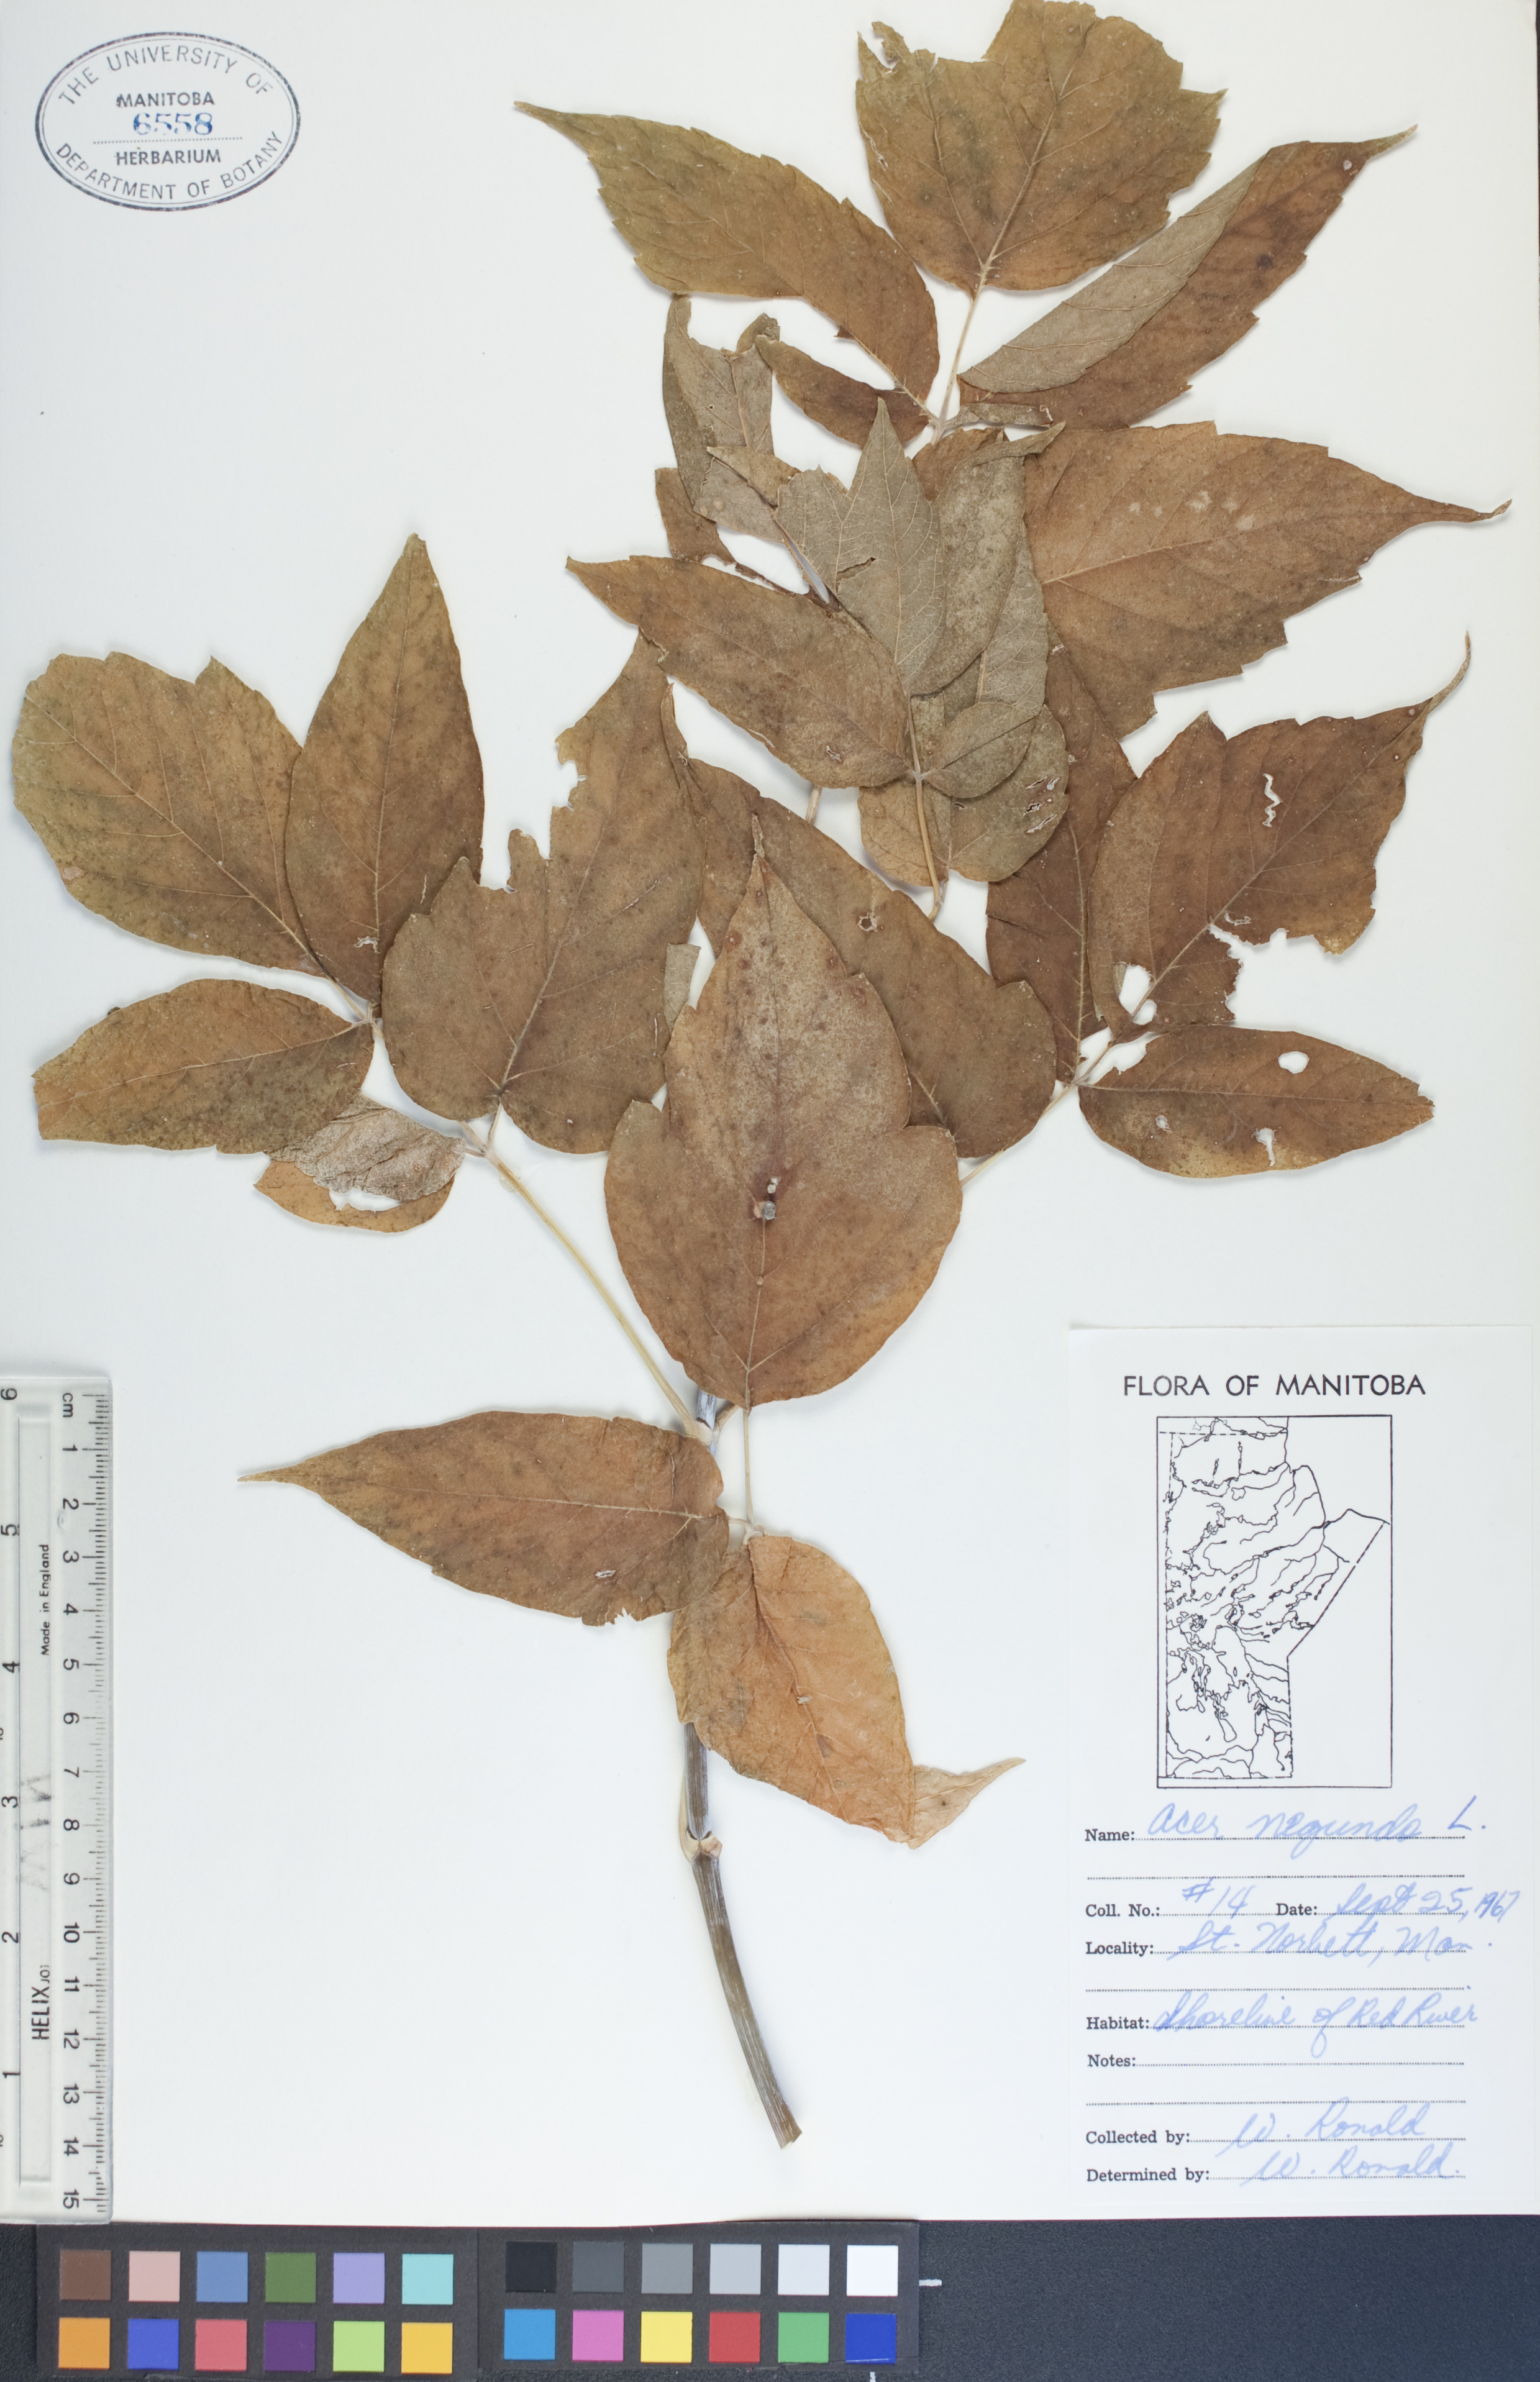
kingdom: Plantae
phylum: Tracheophyta
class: Magnoliopsida
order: Sapindales
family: Sapindaceae
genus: Acer
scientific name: Acer negundo
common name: Ashleaf maple
